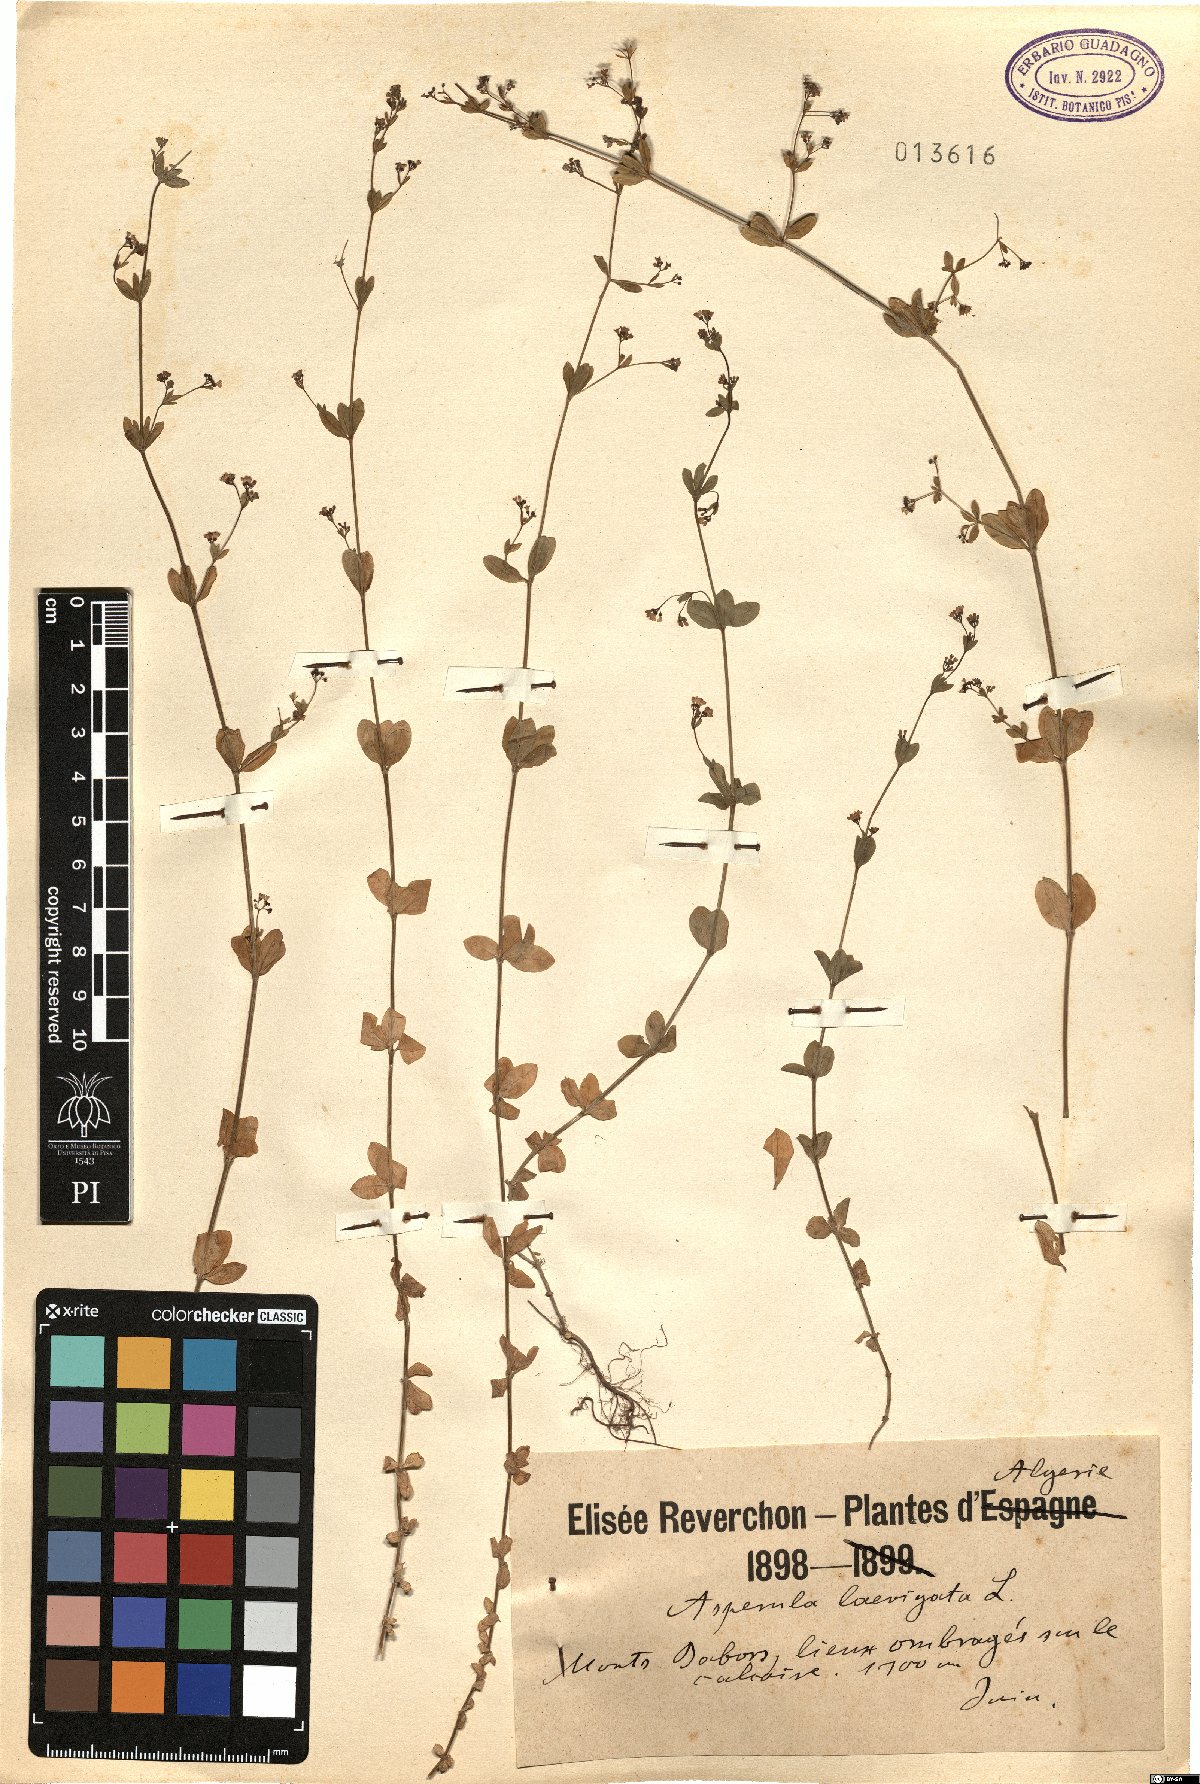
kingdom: Plantae
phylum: Tracheophyta
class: Magnoliopsida
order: Gentianales
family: Rubiaceae
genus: Asperula
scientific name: Asperula laevigata
